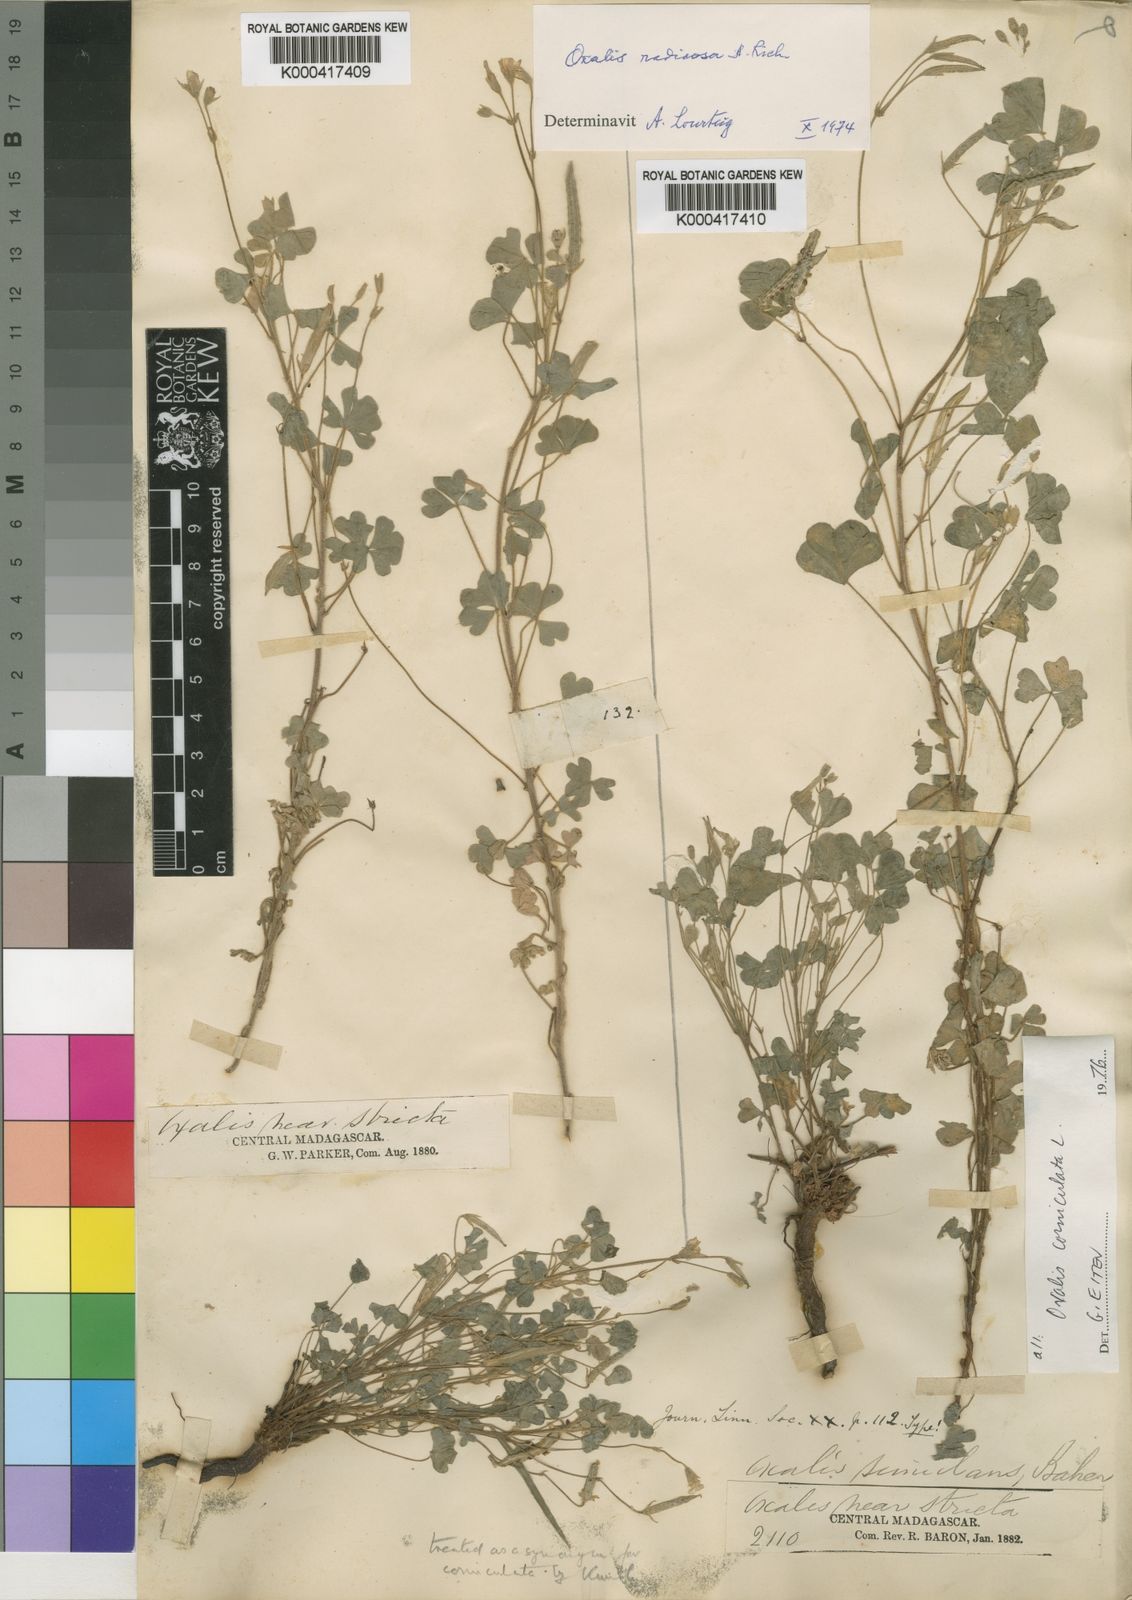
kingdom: Plantae
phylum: Tracheophyta
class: Magnoliopsida
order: Oxalidales
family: Oxalidaceae
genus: Oxalis
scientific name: Oxalis corniculata
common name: Procumbent yellow-sorrel
